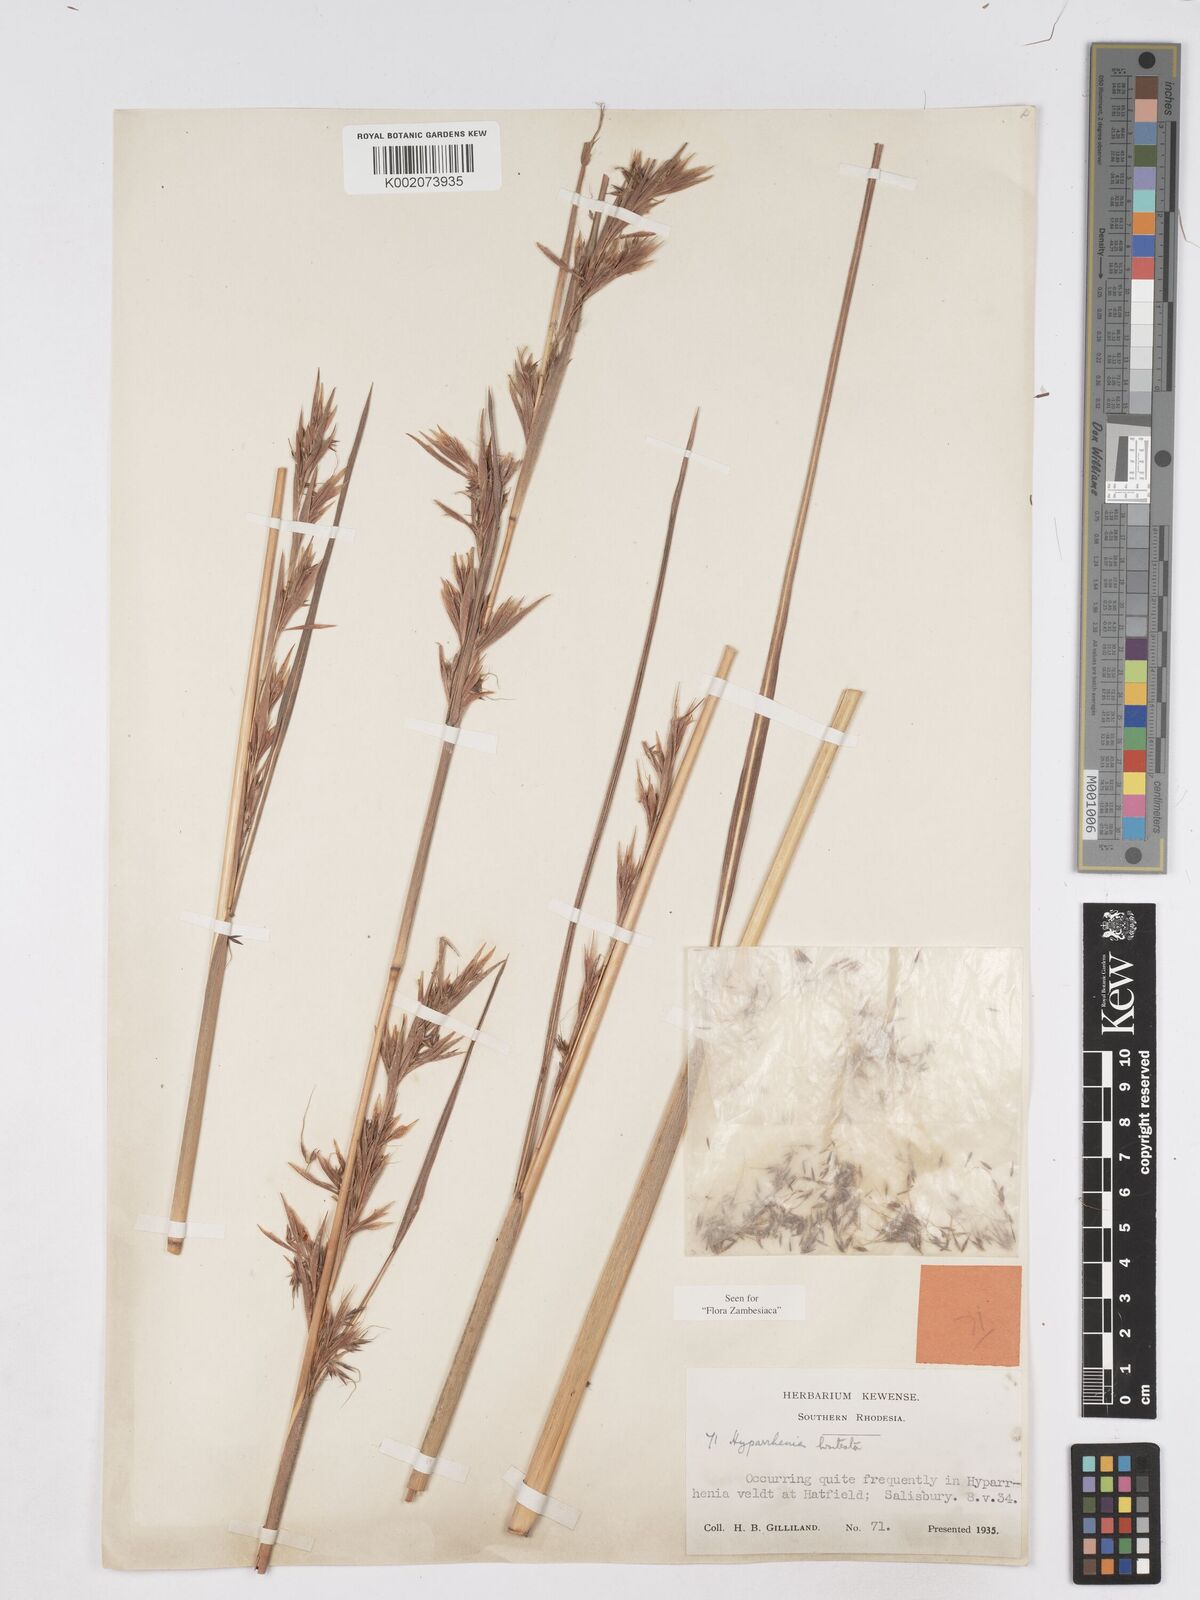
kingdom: Plantae
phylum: Tracheophyta
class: Liliopsida
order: Poales
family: Poaceae
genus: Hyparrhenia
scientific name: Hyparrhenia bracteata
